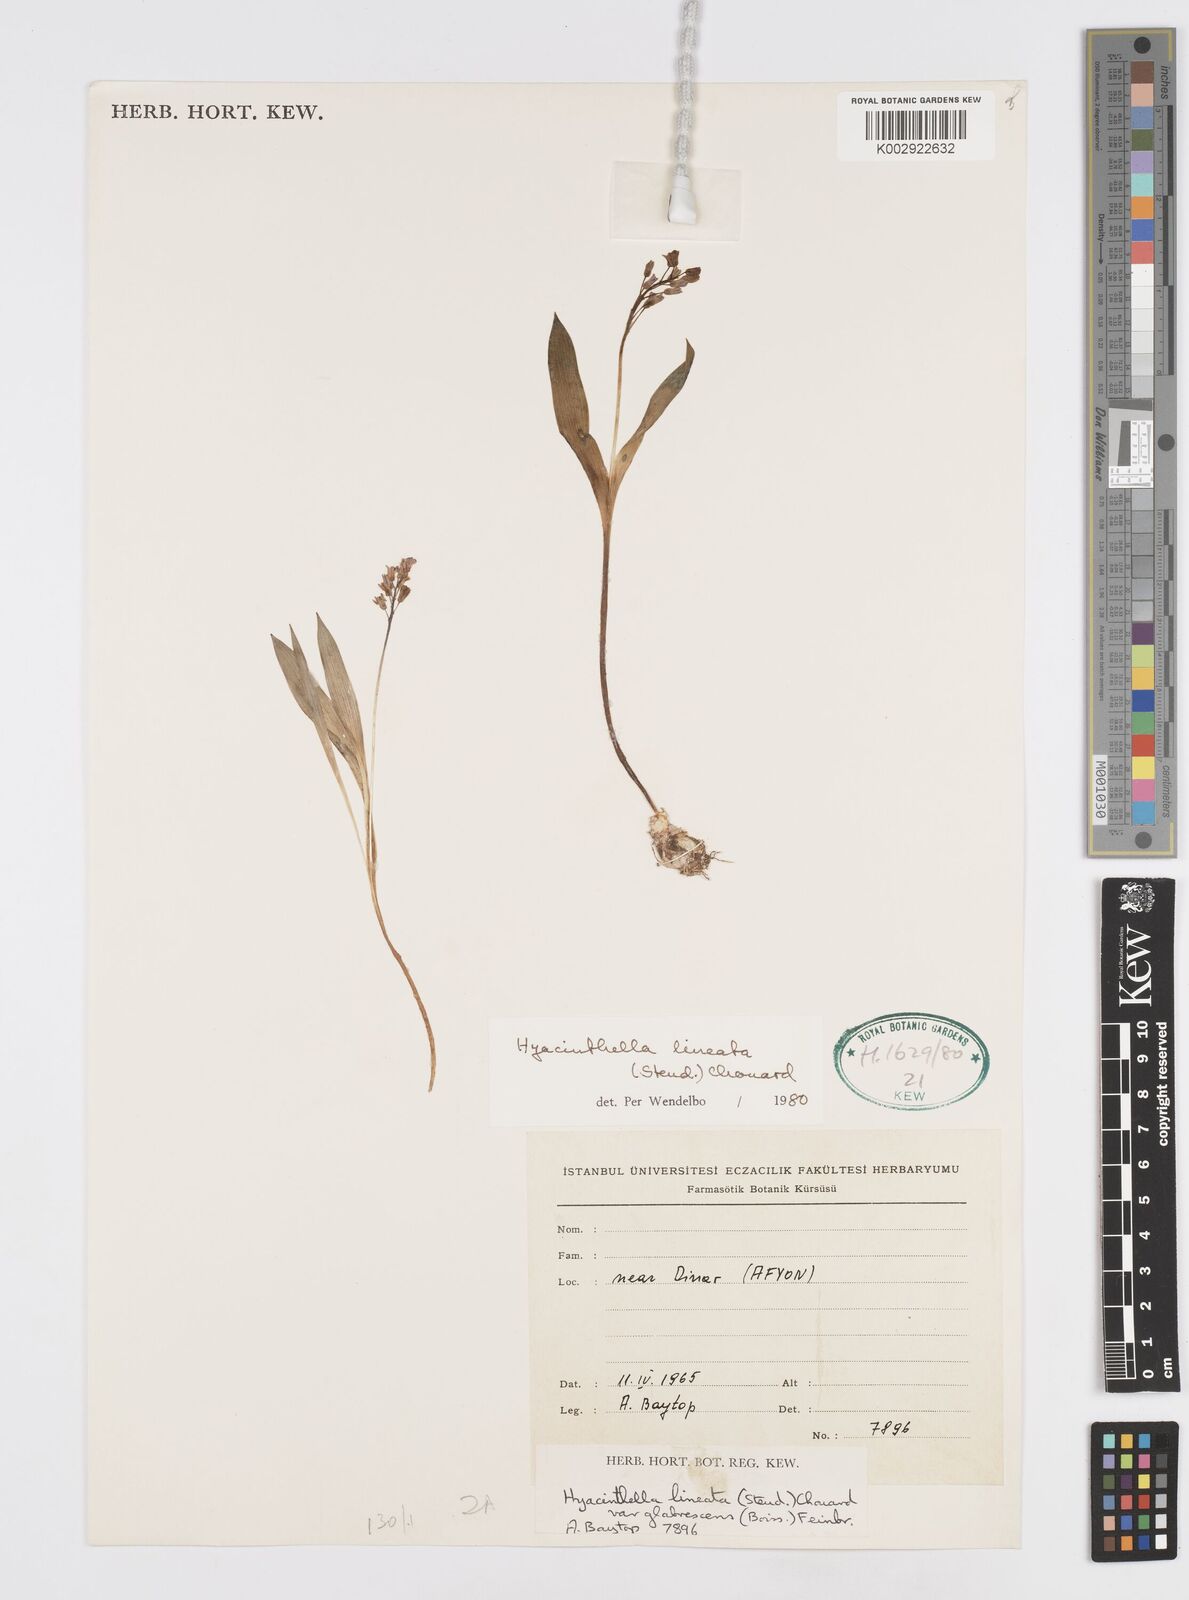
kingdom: Plantae
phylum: Tracheophyta
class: Liliopsida
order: Asparagales
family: Asparagaceae
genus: Hyacinthella
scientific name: Hyacinthella lineata
